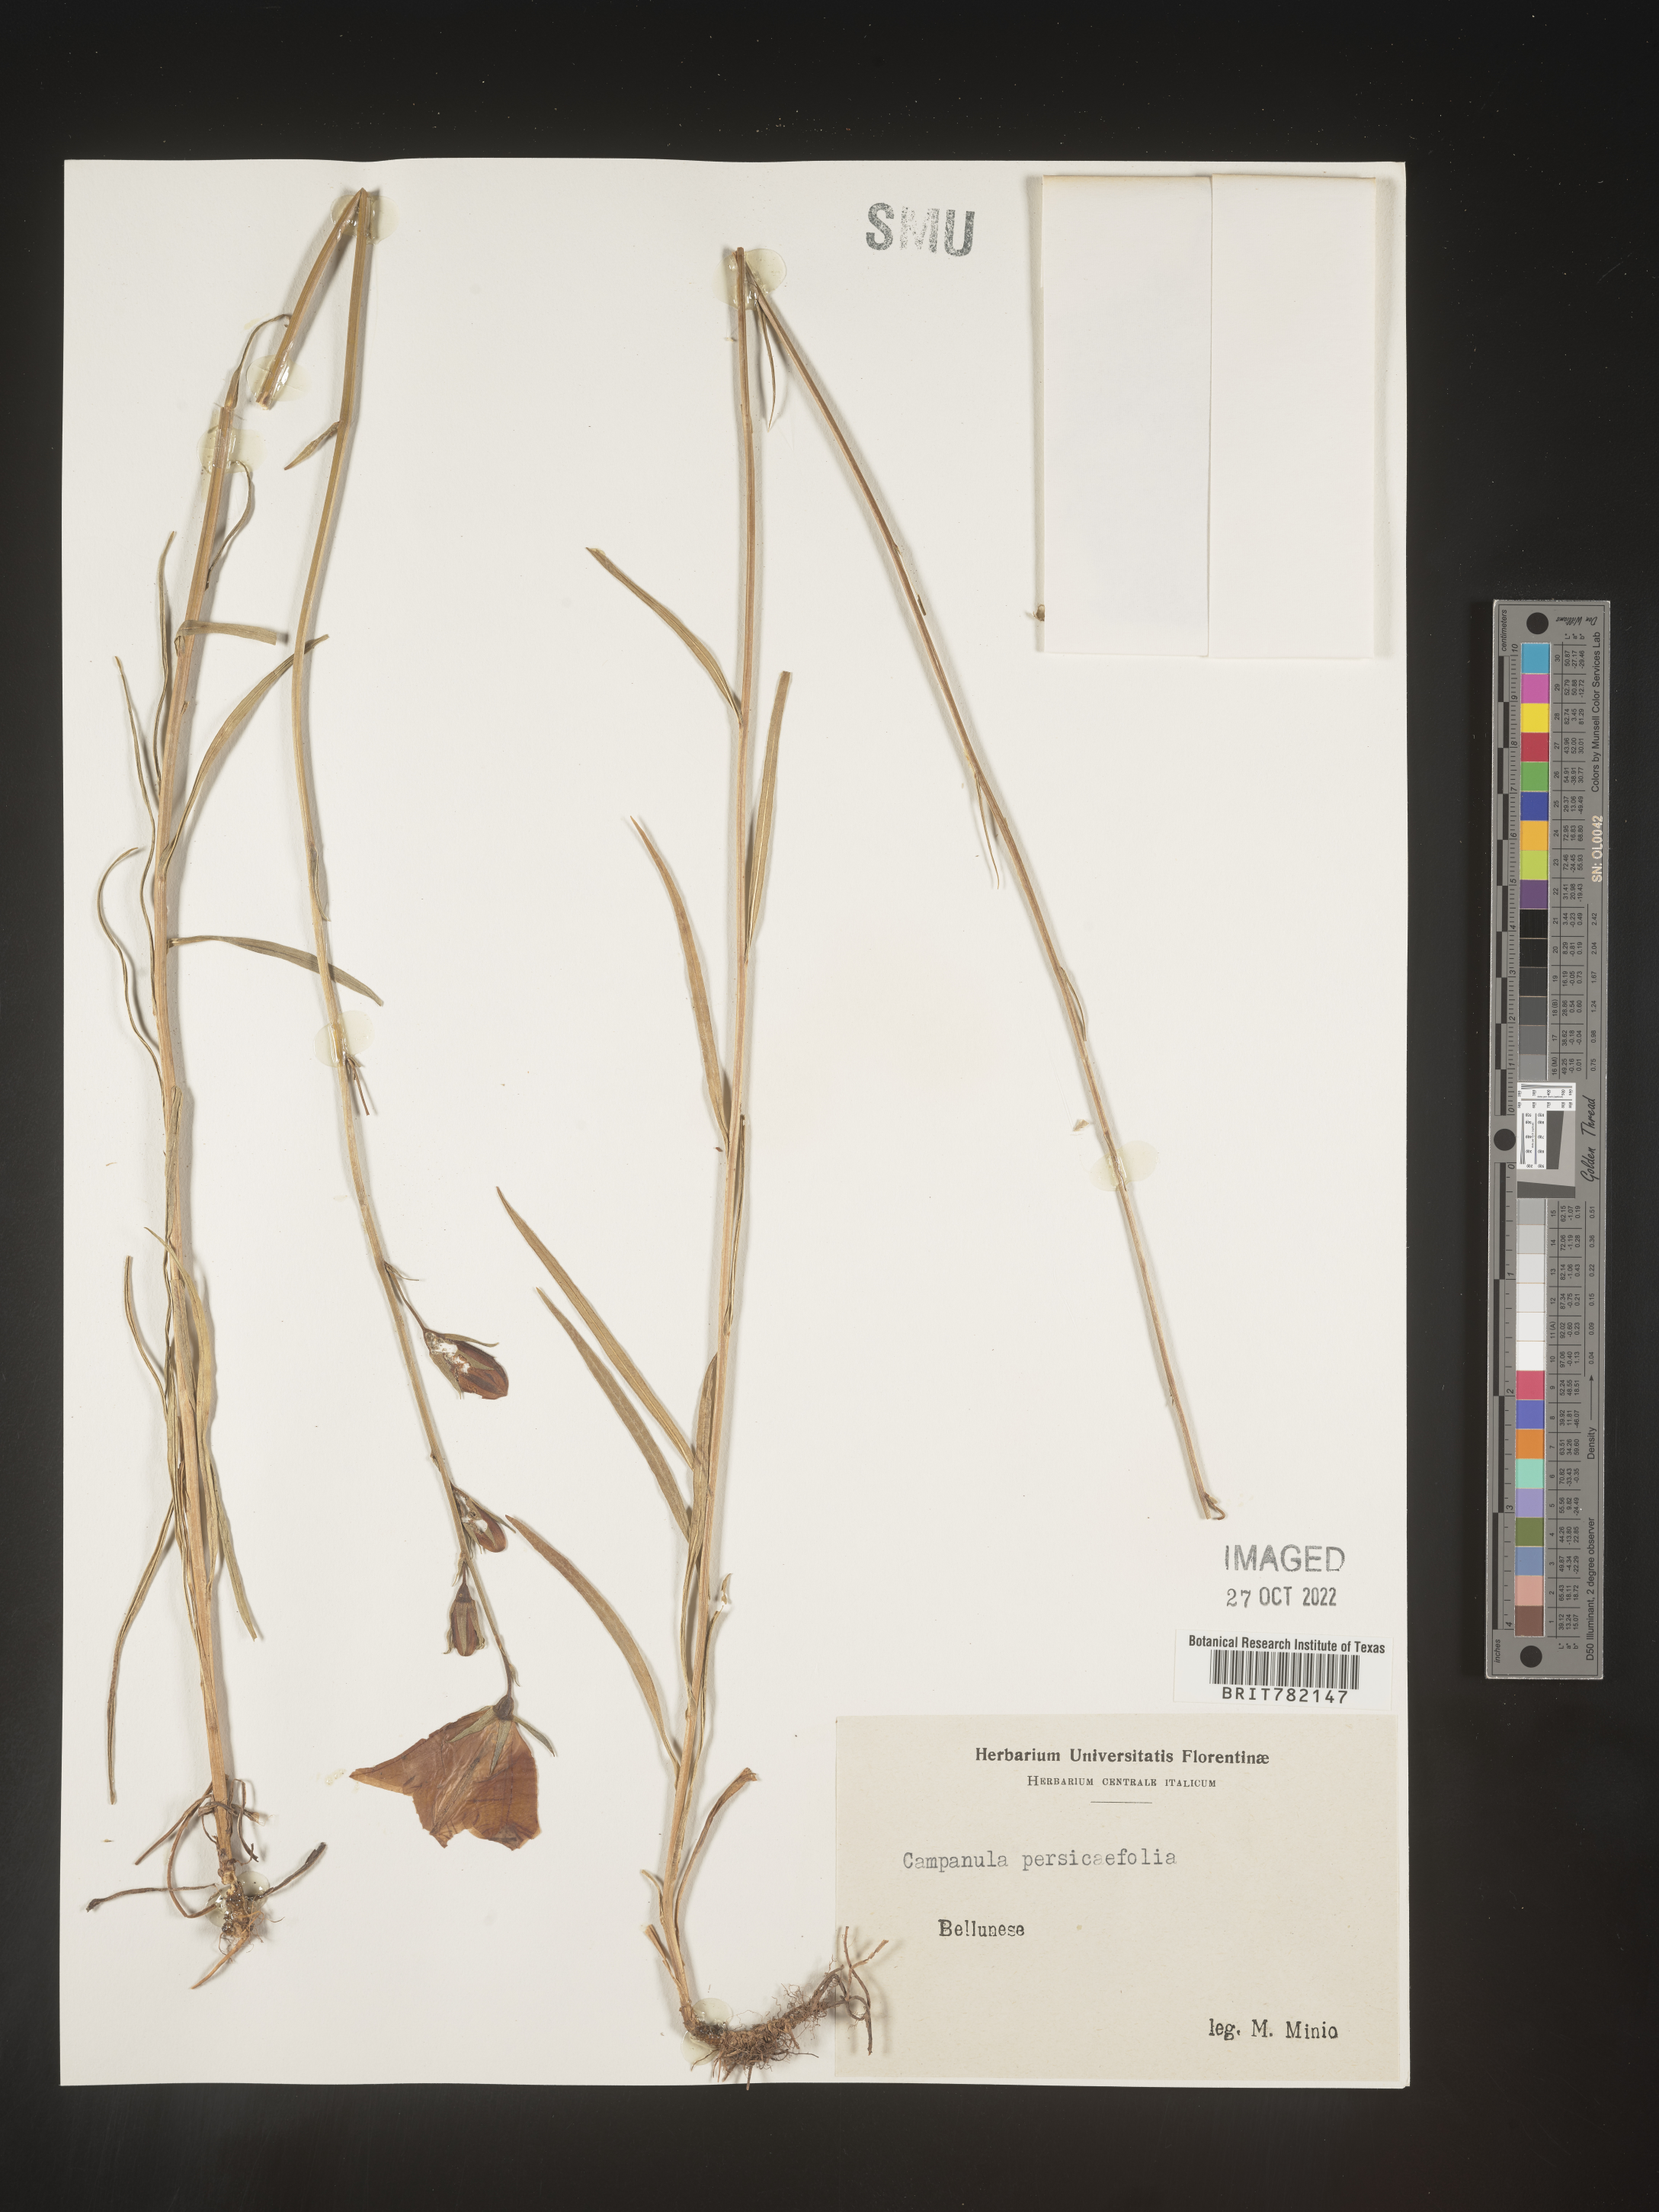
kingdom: Plantae
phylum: Tracheophyta
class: Magnoliopsida
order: Asterales
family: Campanulaceae
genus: Campanula
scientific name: Campanula
